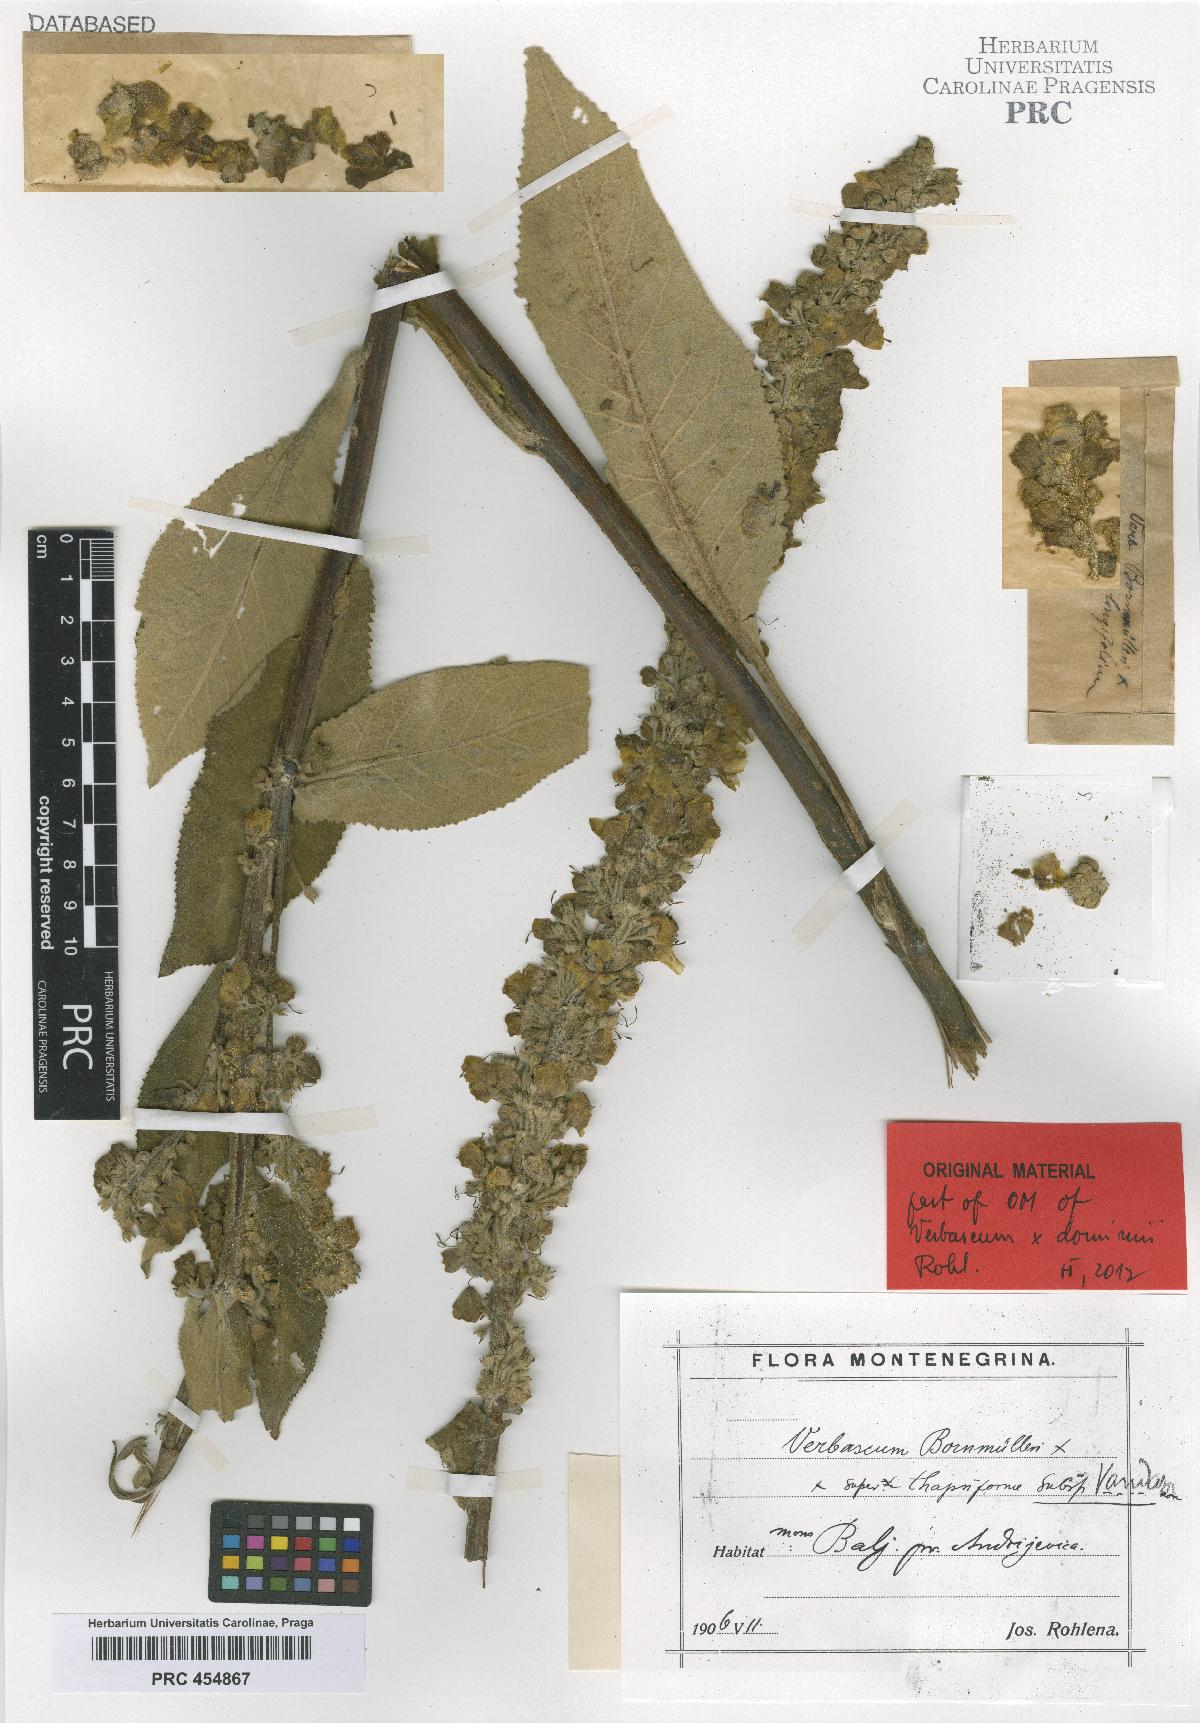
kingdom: Plantae
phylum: Tracheophyta
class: Magnoliopsida
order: Lamiales
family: Scrophulariaceae
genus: Verbascum
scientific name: Verbascum dominii
